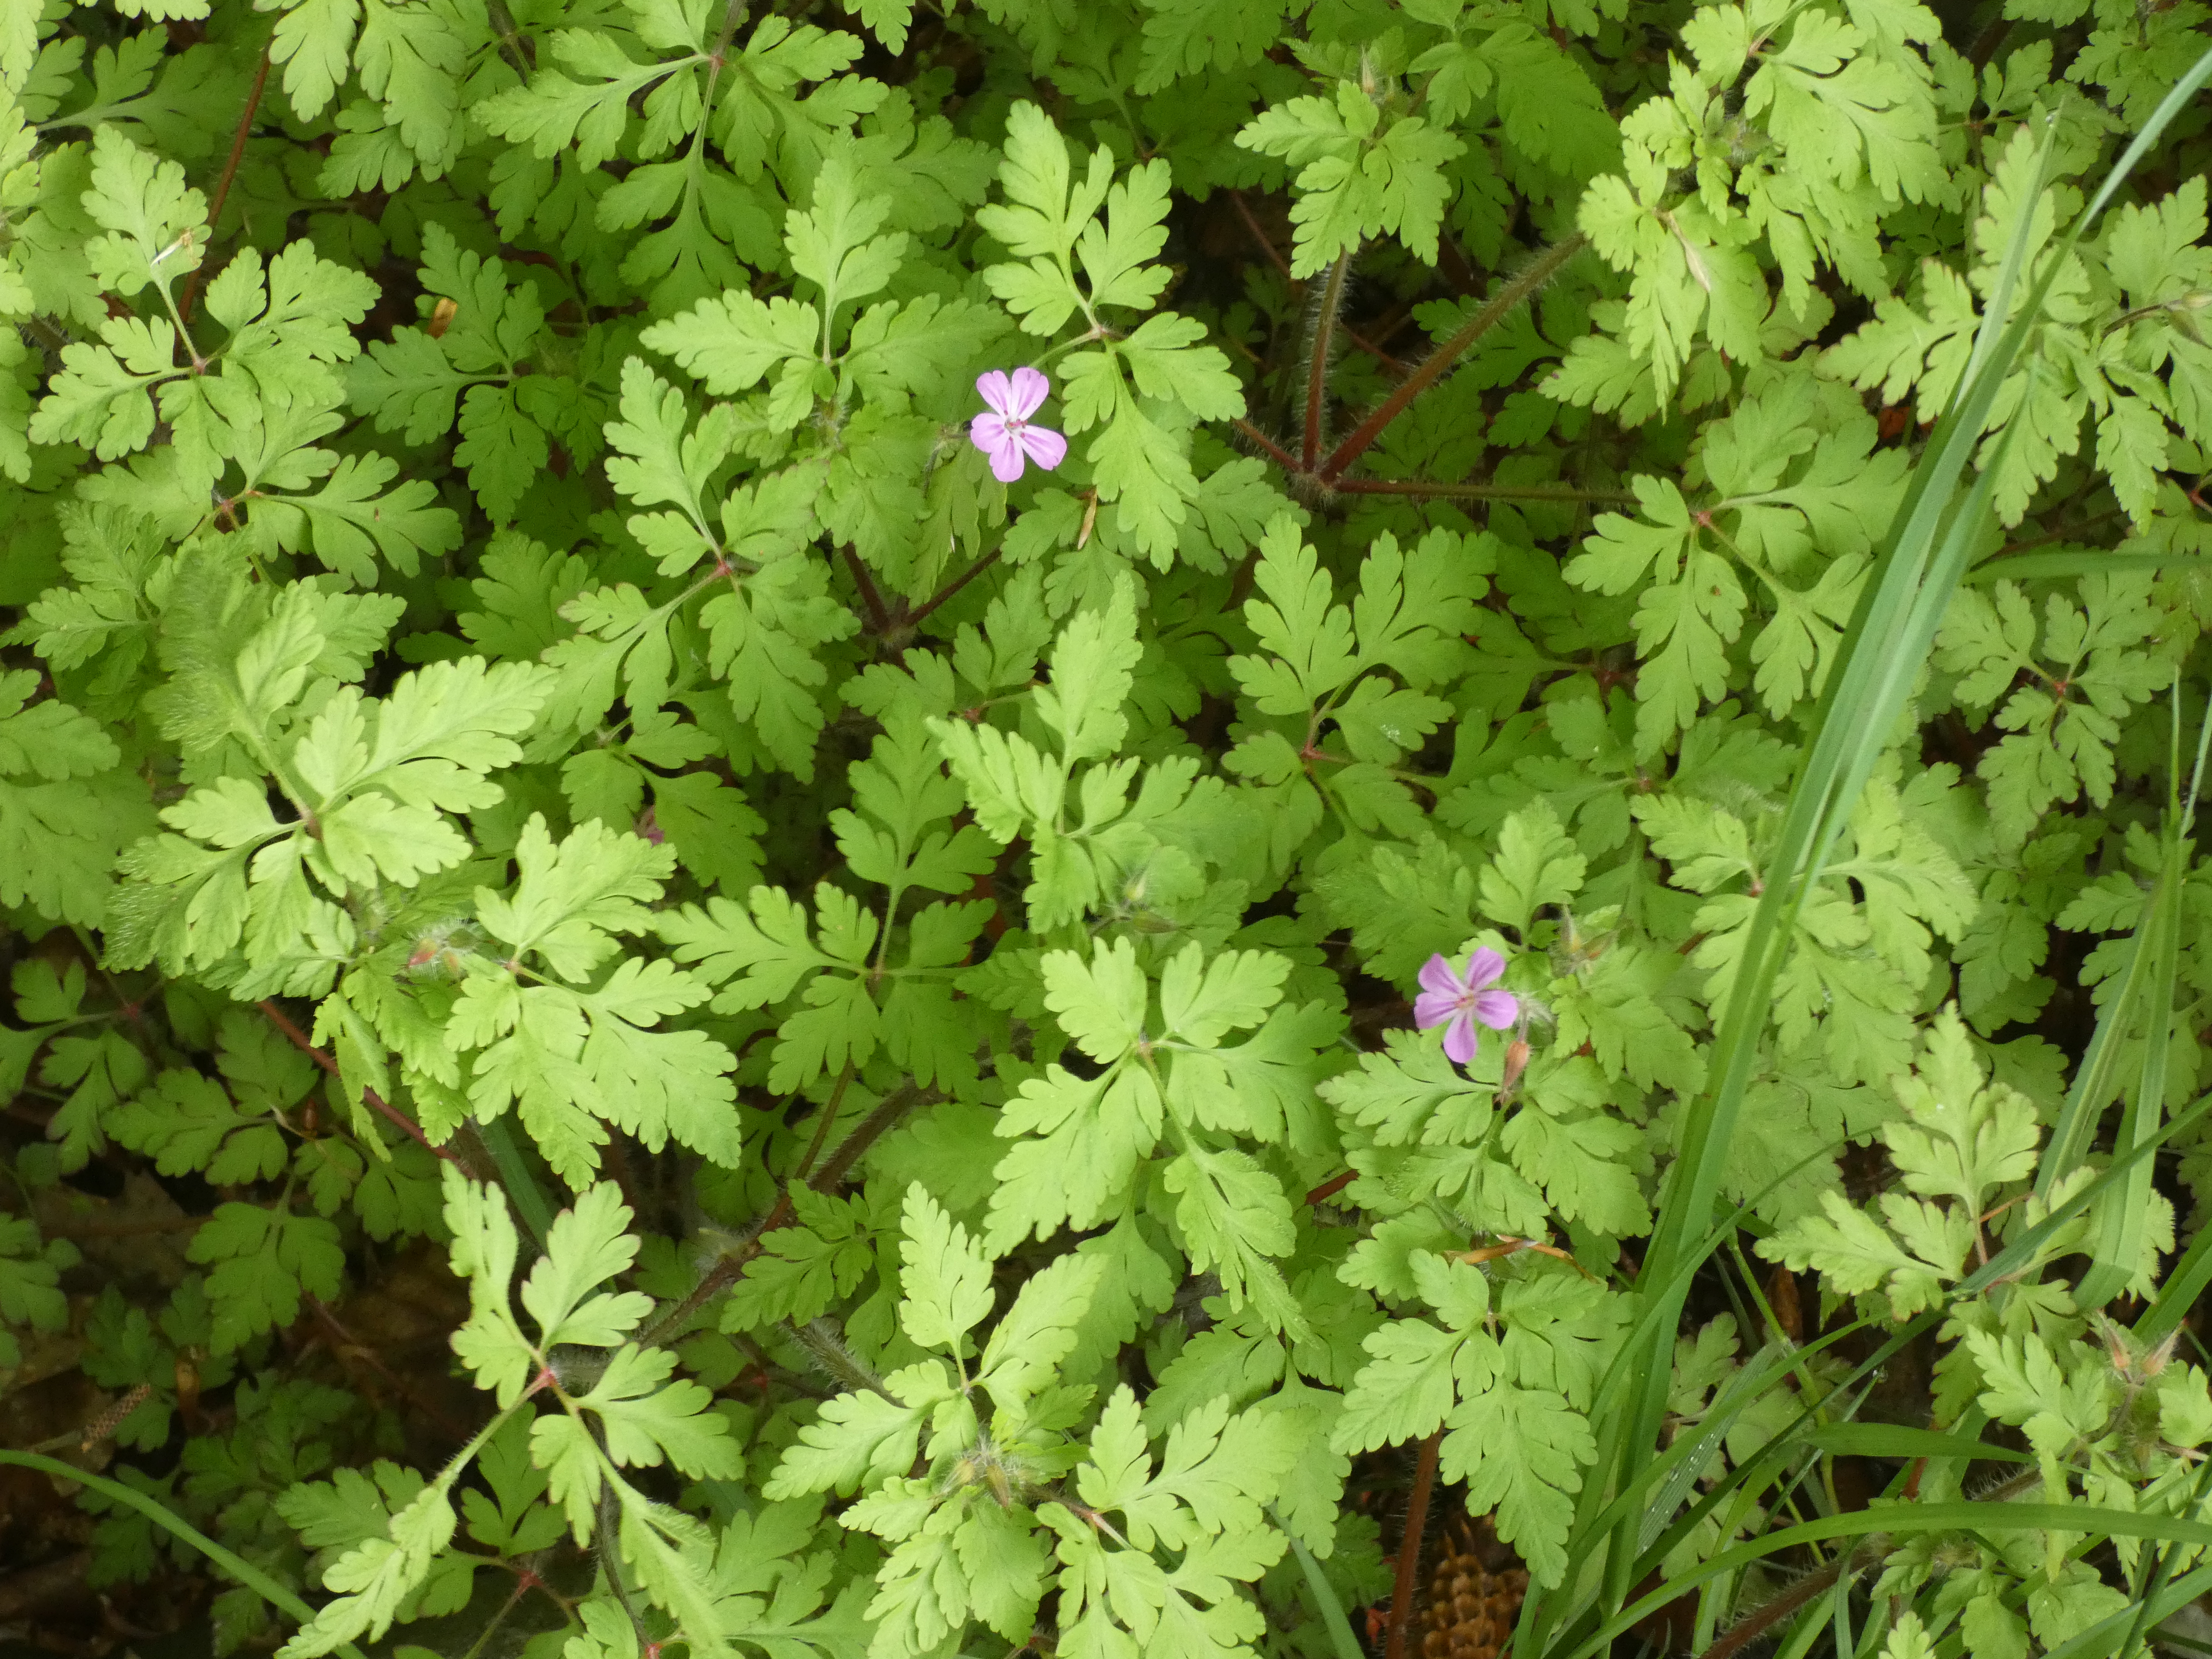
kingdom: Plantae
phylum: Tracheophyta
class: Magnoliopsida
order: Geraniales
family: Geraniaceae
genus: Geranium
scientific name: Geranium robertianum
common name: Stinkende storkenæb
